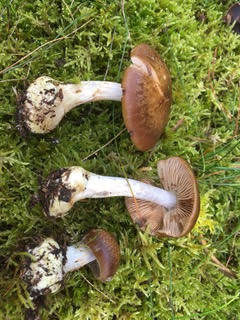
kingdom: Fungi
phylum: Basidiomycota
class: Agaricomycetes
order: Agaricales
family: Cortinariaceae
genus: Thaxterogaster
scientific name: Thaxterogaster sphagnophilus
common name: vandplettet slørhat
